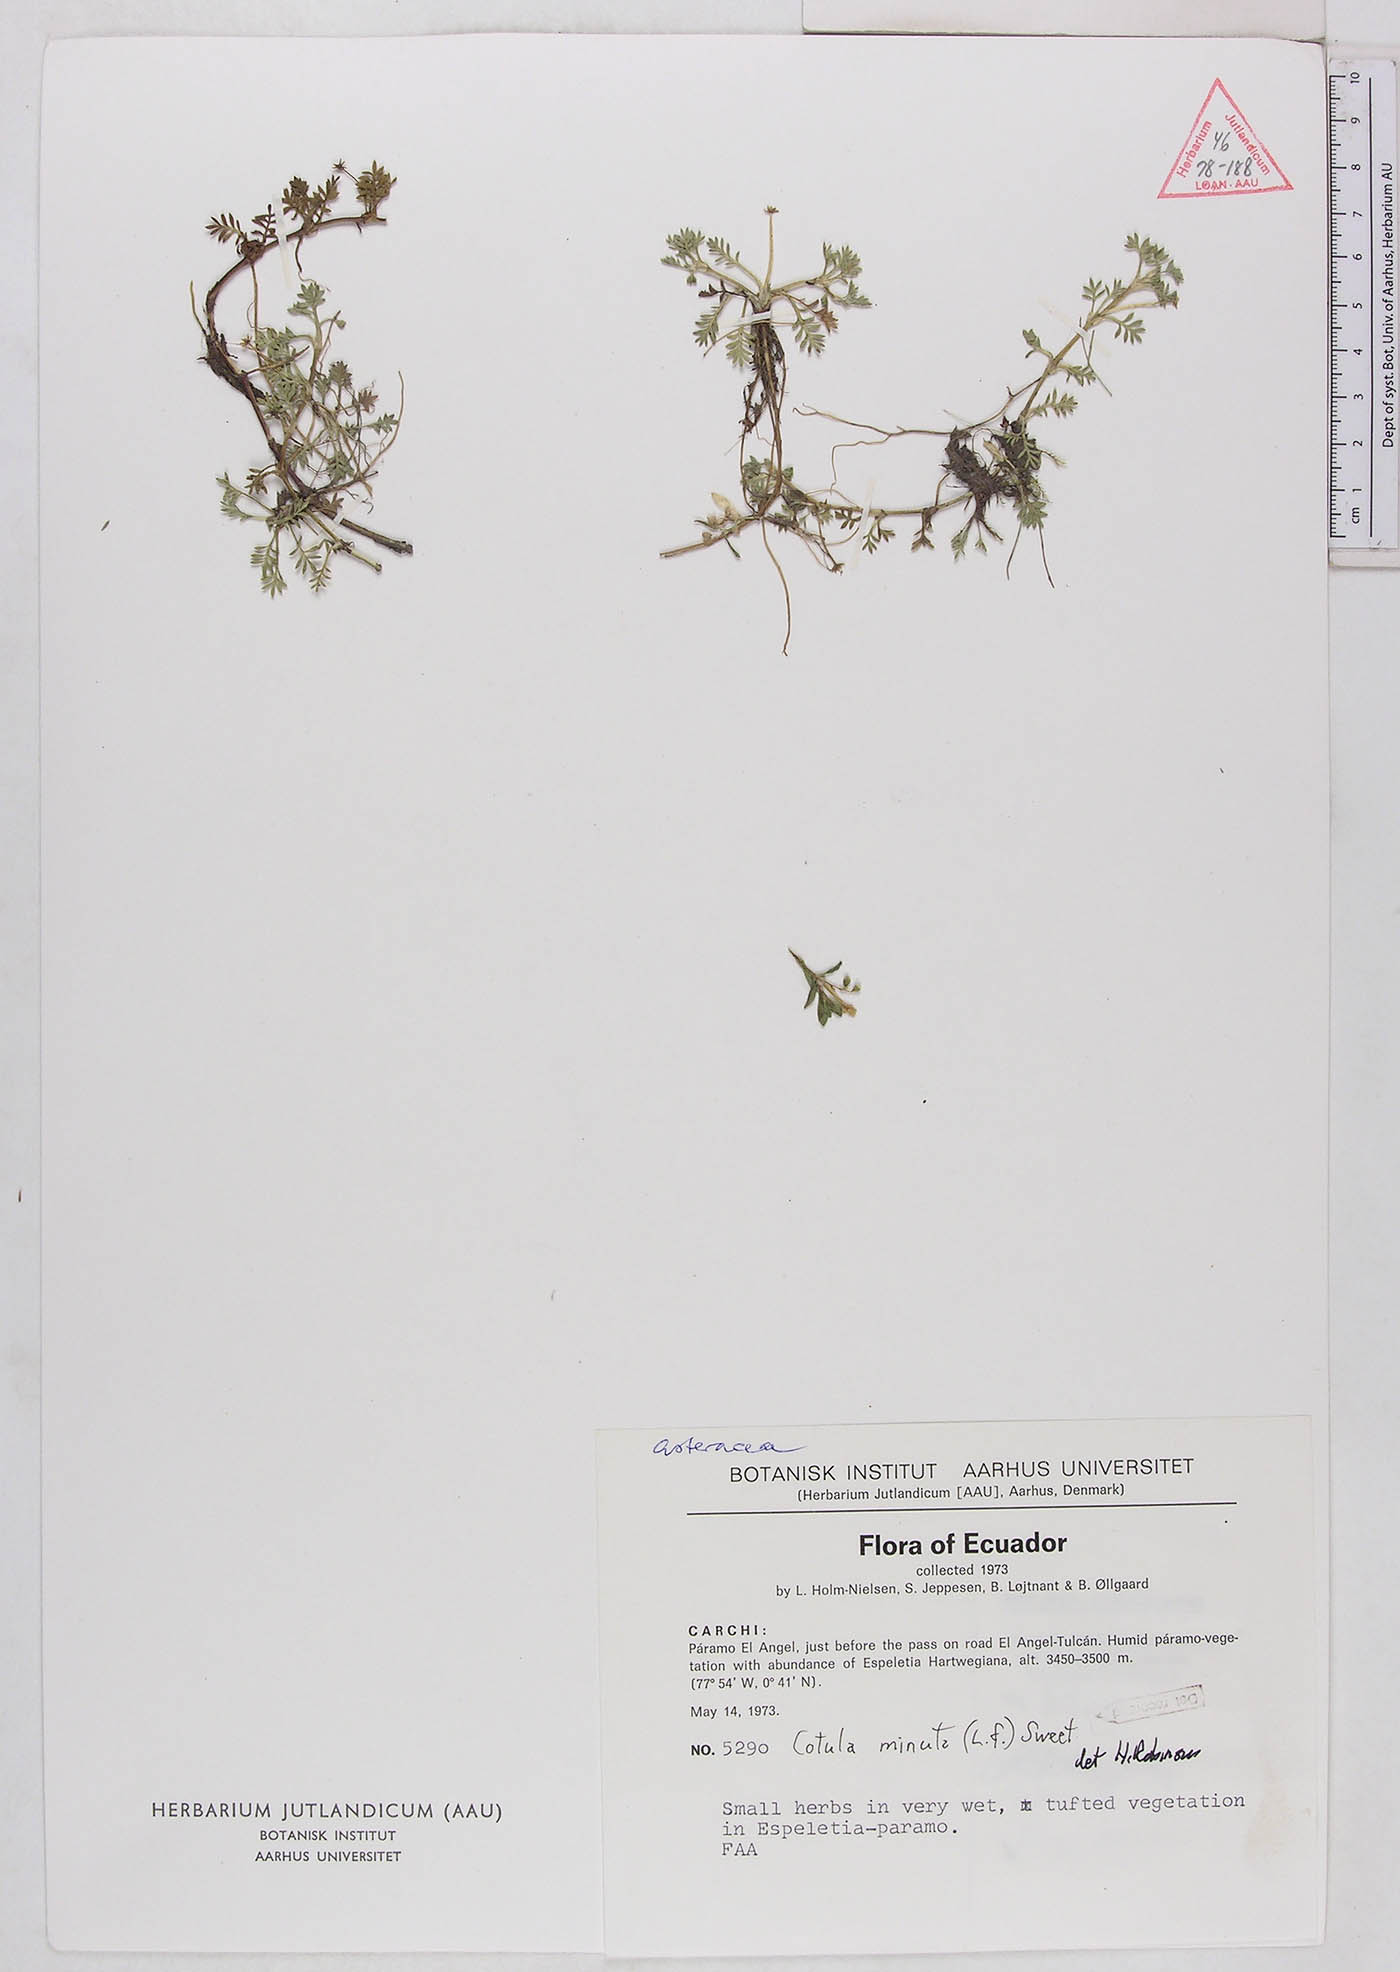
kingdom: Plantae
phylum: Tracheophyta
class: Magnoliopsida
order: Asterales
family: Asteraceae
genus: Soliva
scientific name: Soliva mexicana
